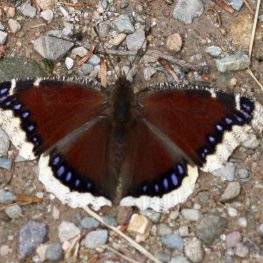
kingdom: Animalia
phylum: Arthropoda
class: Insecta
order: Lepidoptera
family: Nymphalidae
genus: Nymphalis
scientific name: Nymphalis antiopa
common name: Mourning Cloak
